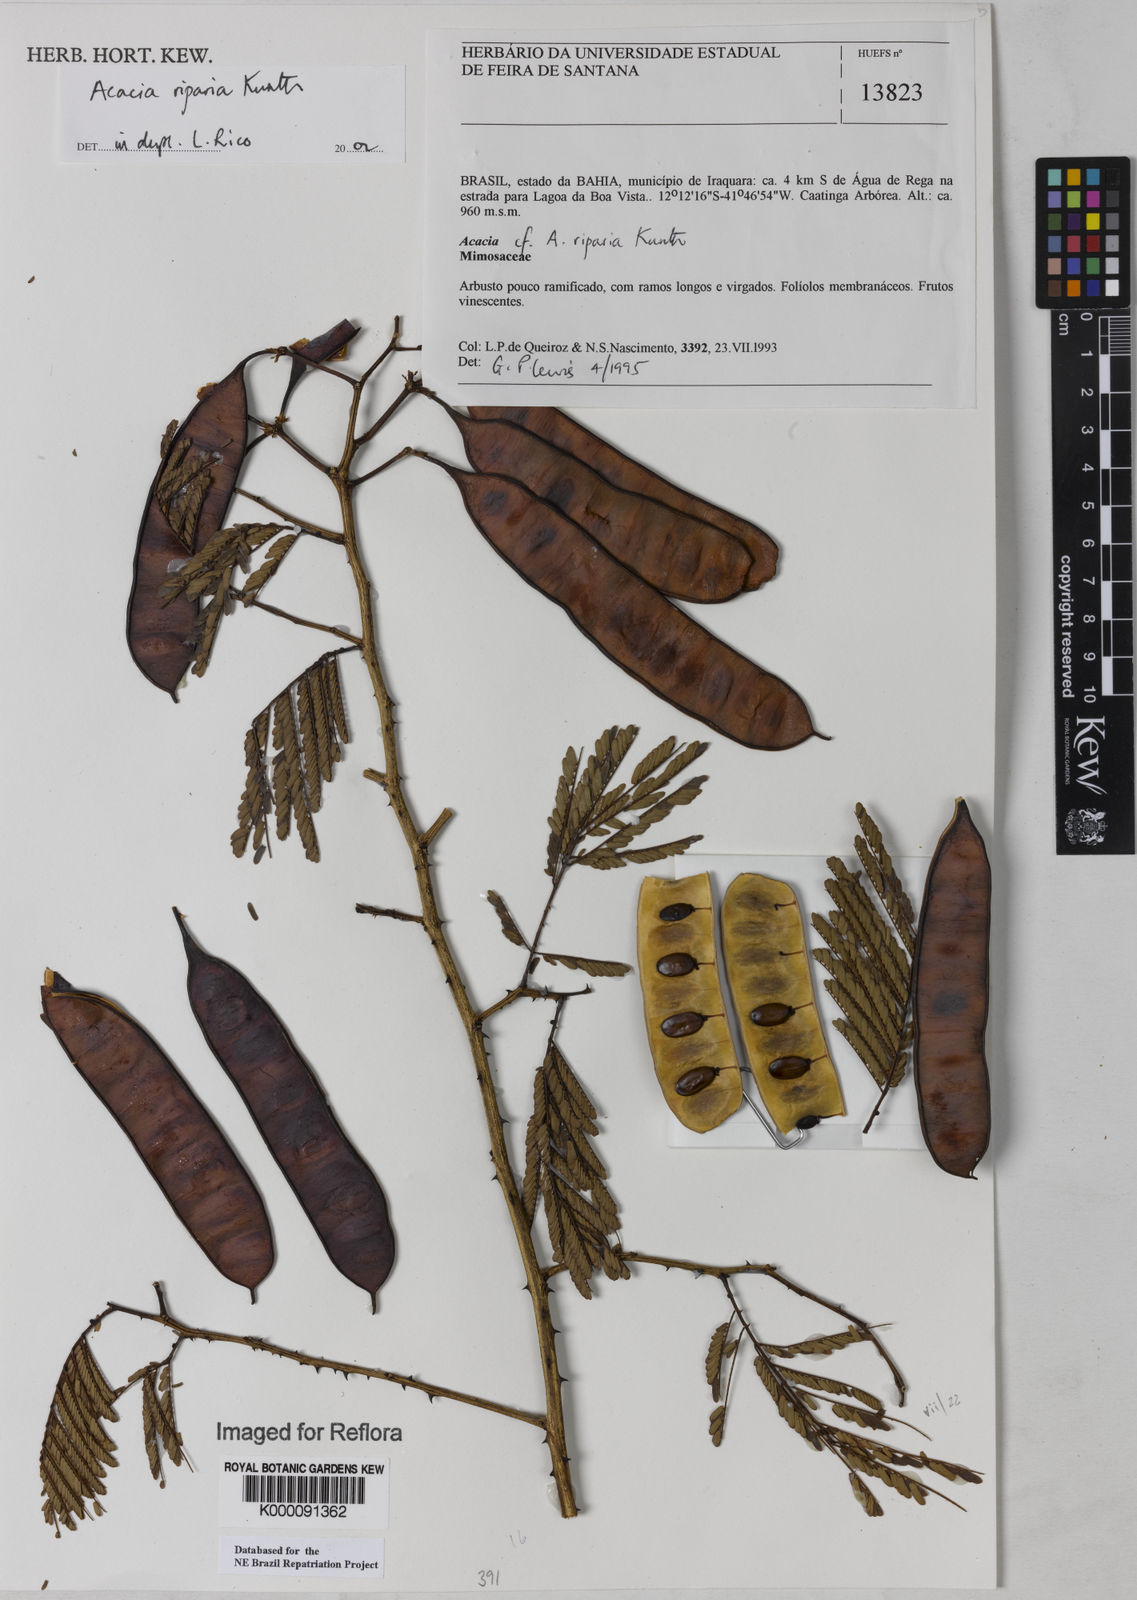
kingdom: Plantae
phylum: Tracheophyta
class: Magnoliopsida
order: Fabales
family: Fabaceae
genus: Senegalia
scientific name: Senegalia riparia
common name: Catch-and-keep
